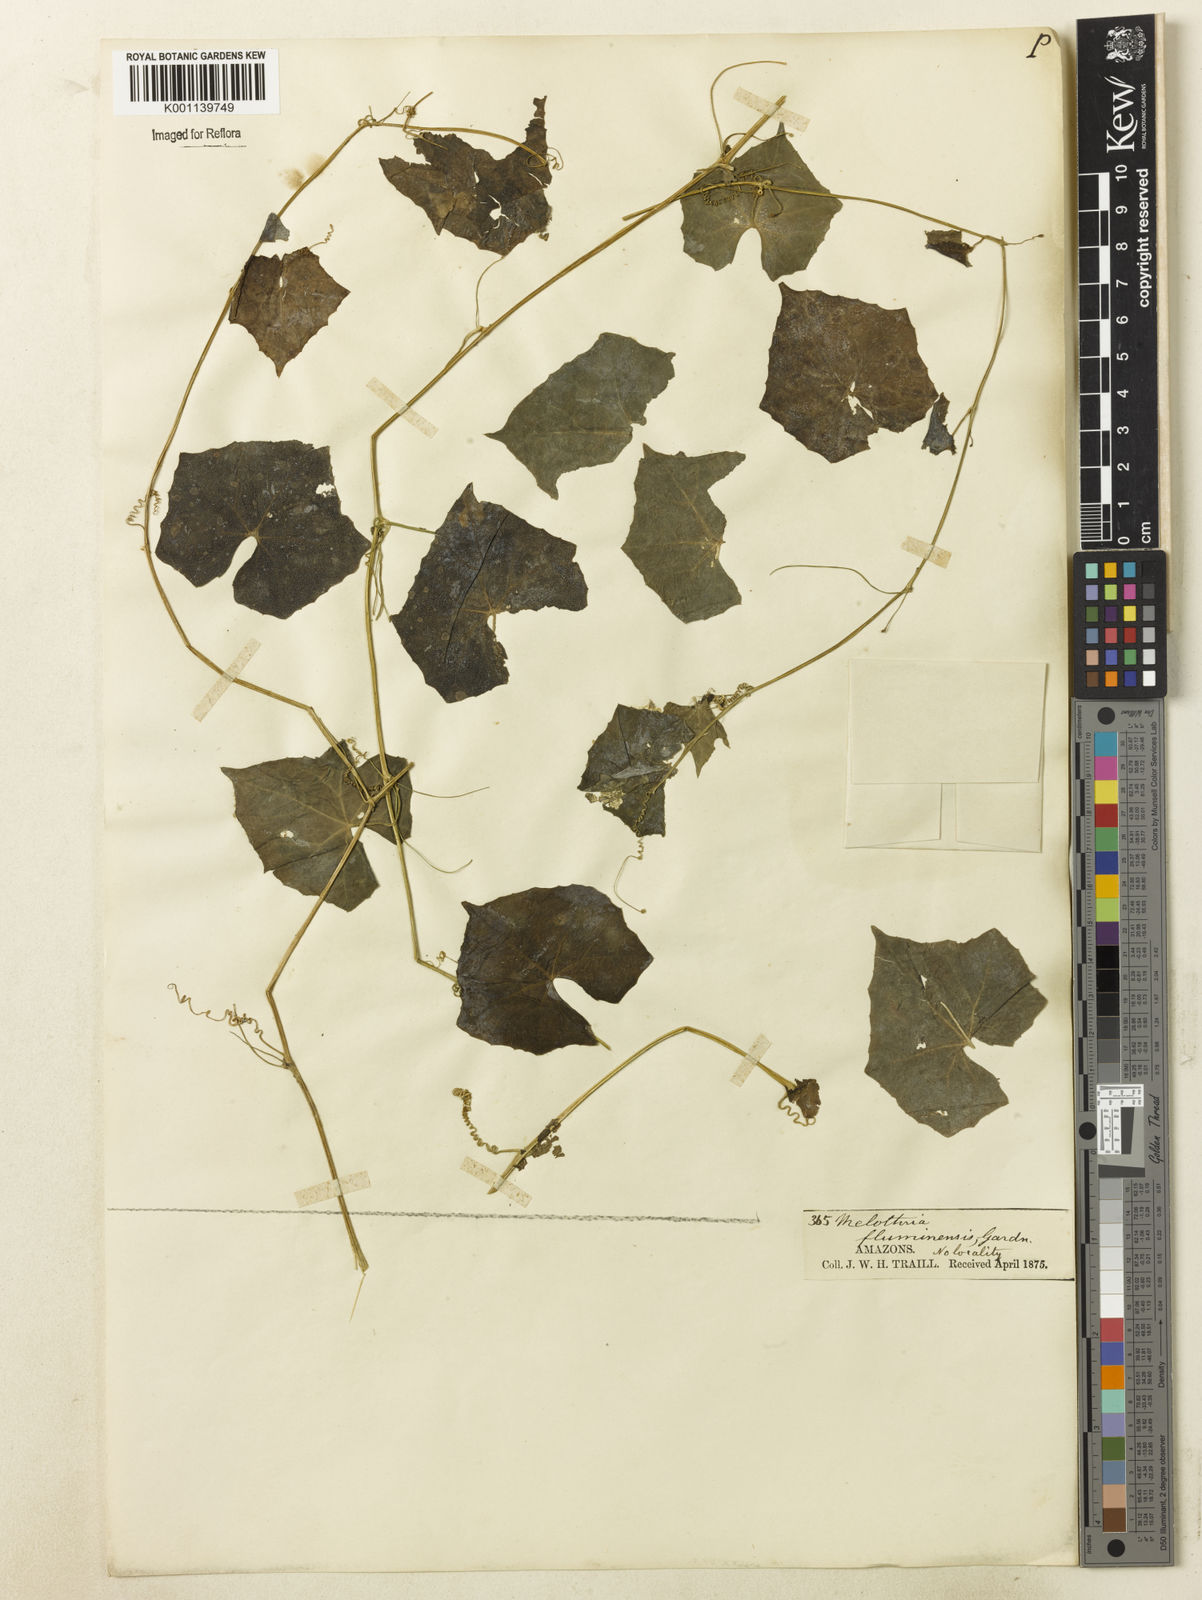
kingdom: Plantae
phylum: Tracheophyta
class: Magnoliopsida
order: Cucurbitales
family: Cucurbitaceae
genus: Melothria
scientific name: Melothria pendula
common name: Creeping-cucumber
